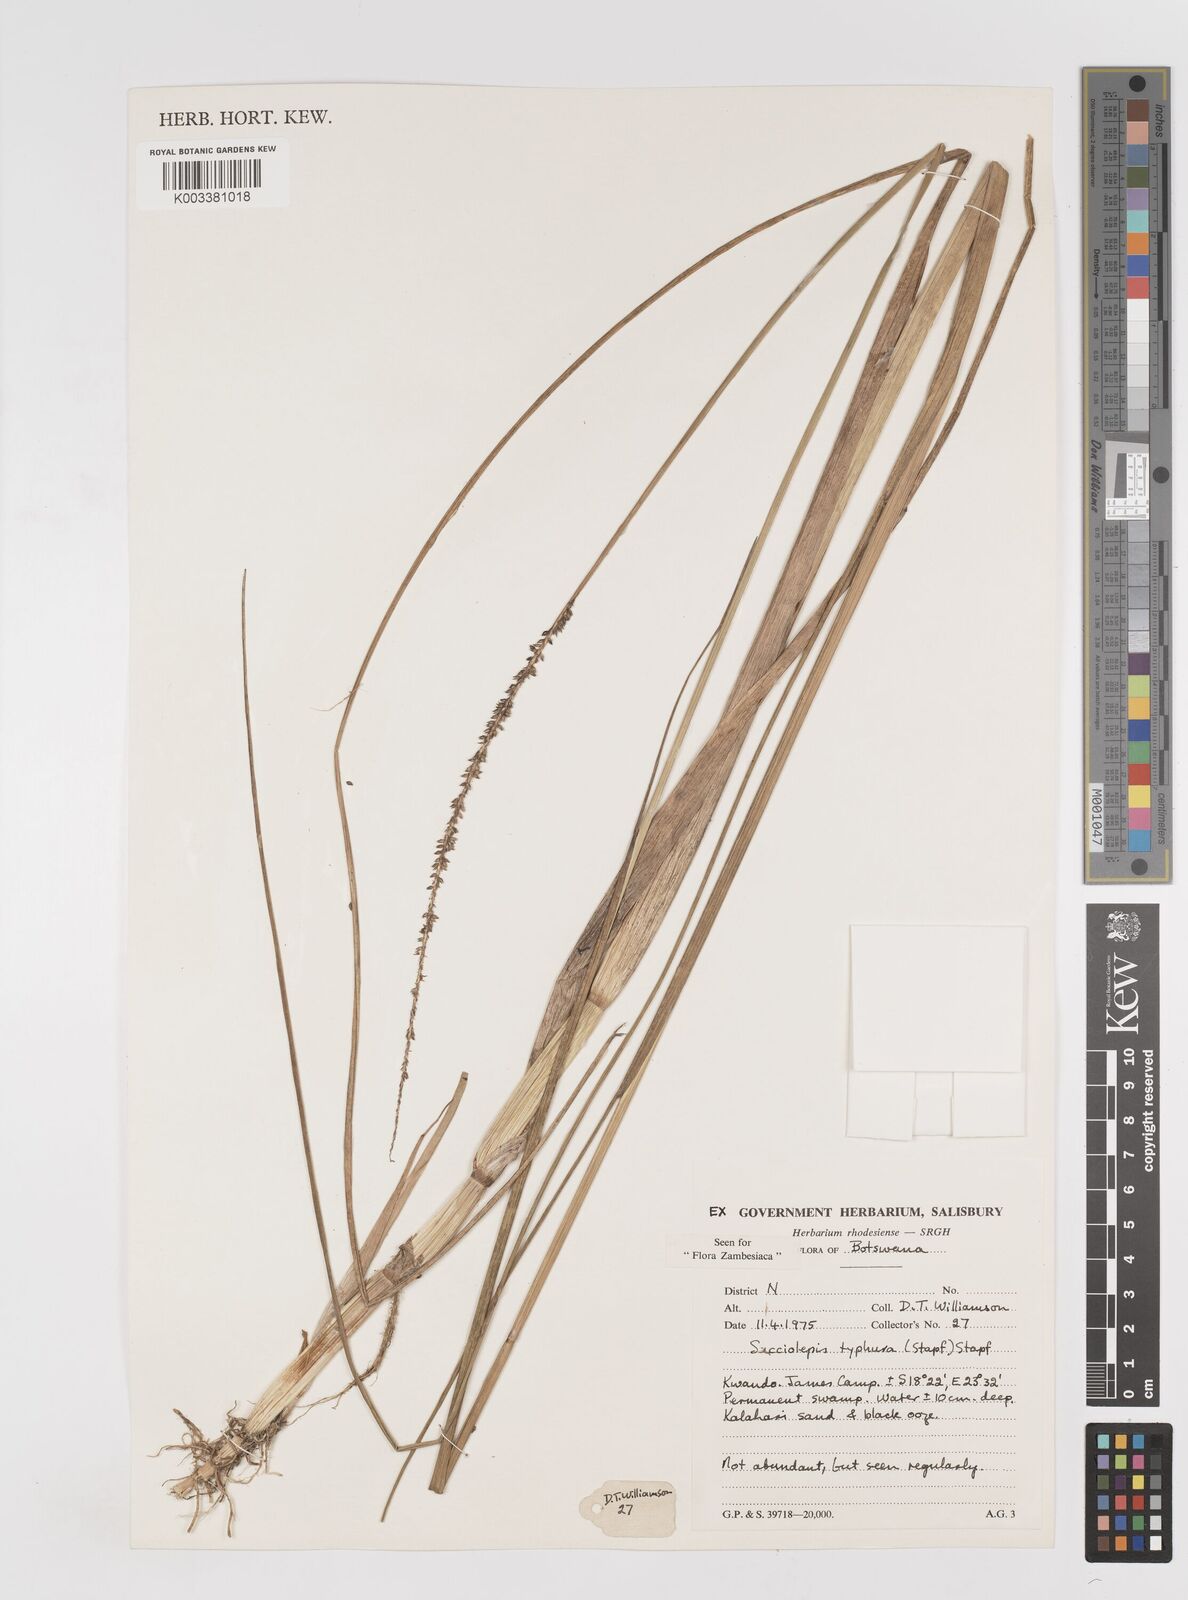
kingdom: Plantae
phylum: Tracheophyta
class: Liliopsida
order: Poales
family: Poaceae
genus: Sacciolepis
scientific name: Sacciolepis typhura
